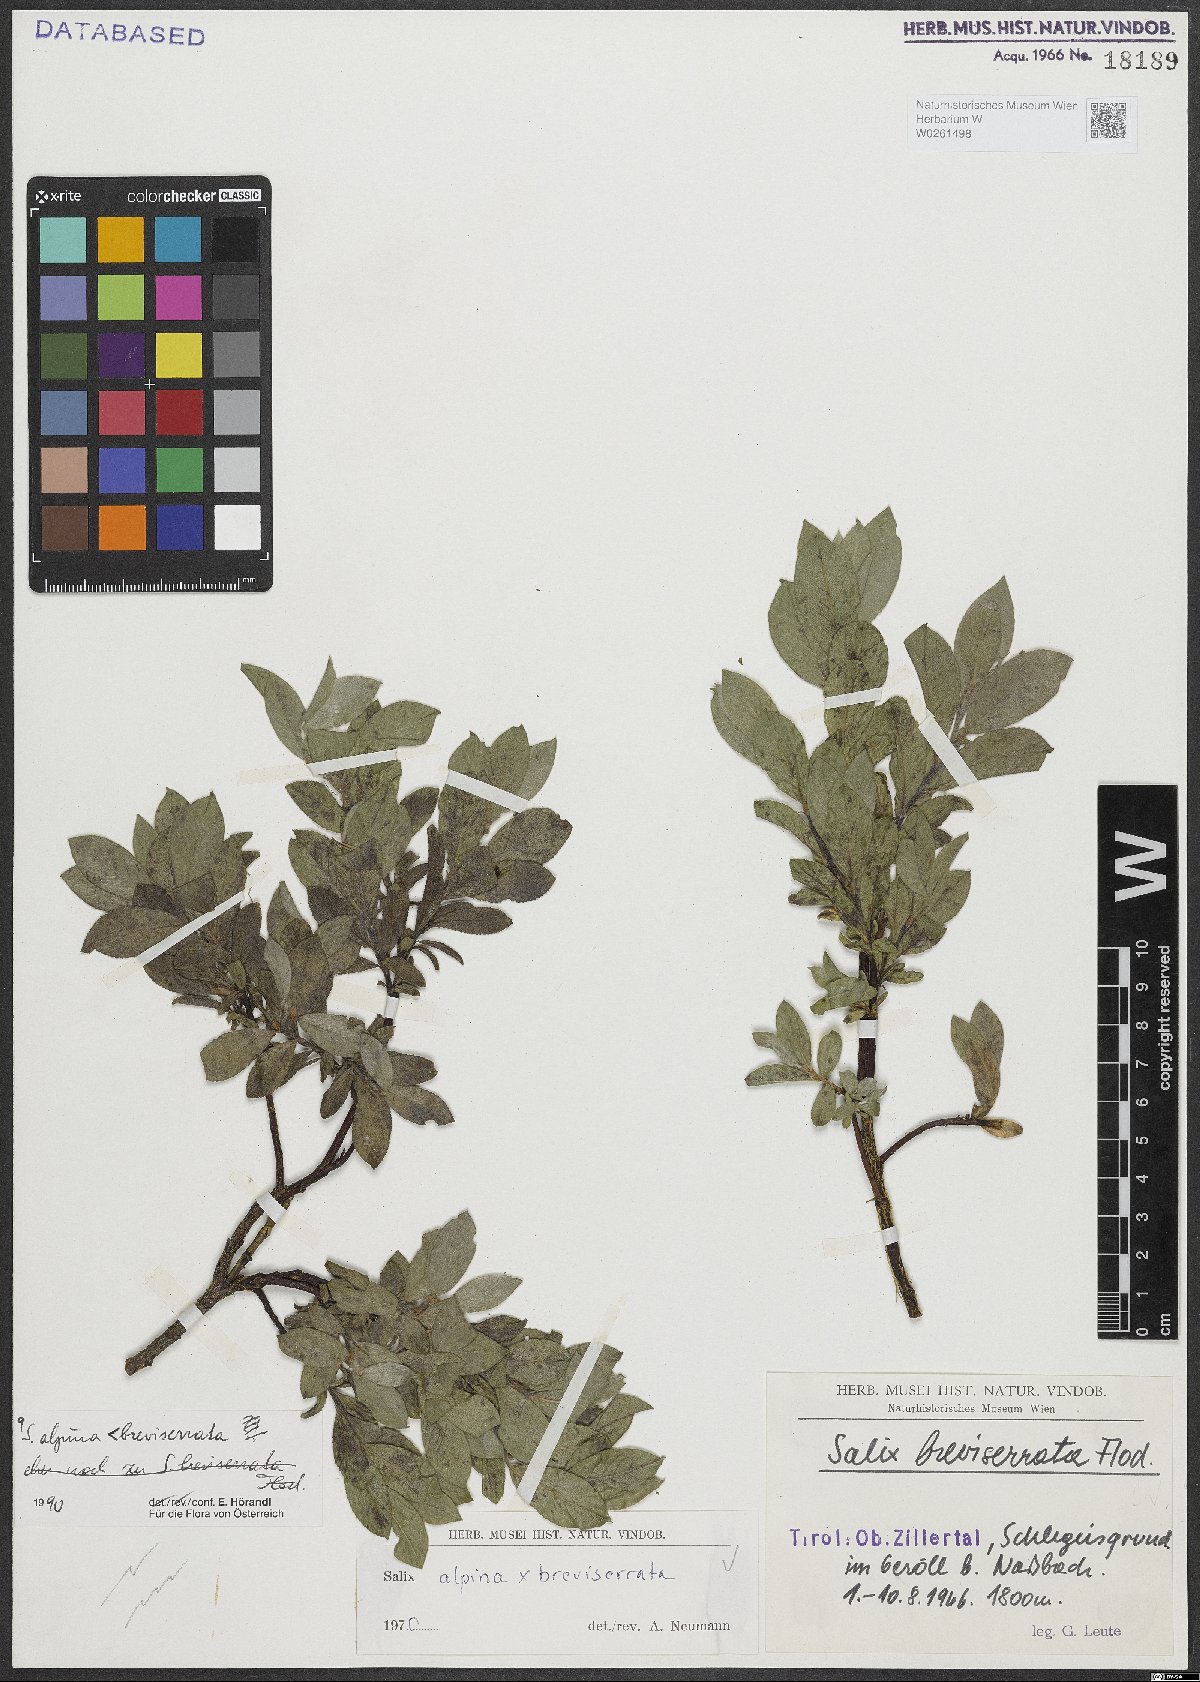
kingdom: Plantae
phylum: Tracheophyta
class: Magnoliopsida
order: Malpighiales
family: Salicaceae
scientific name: Salicaceae
